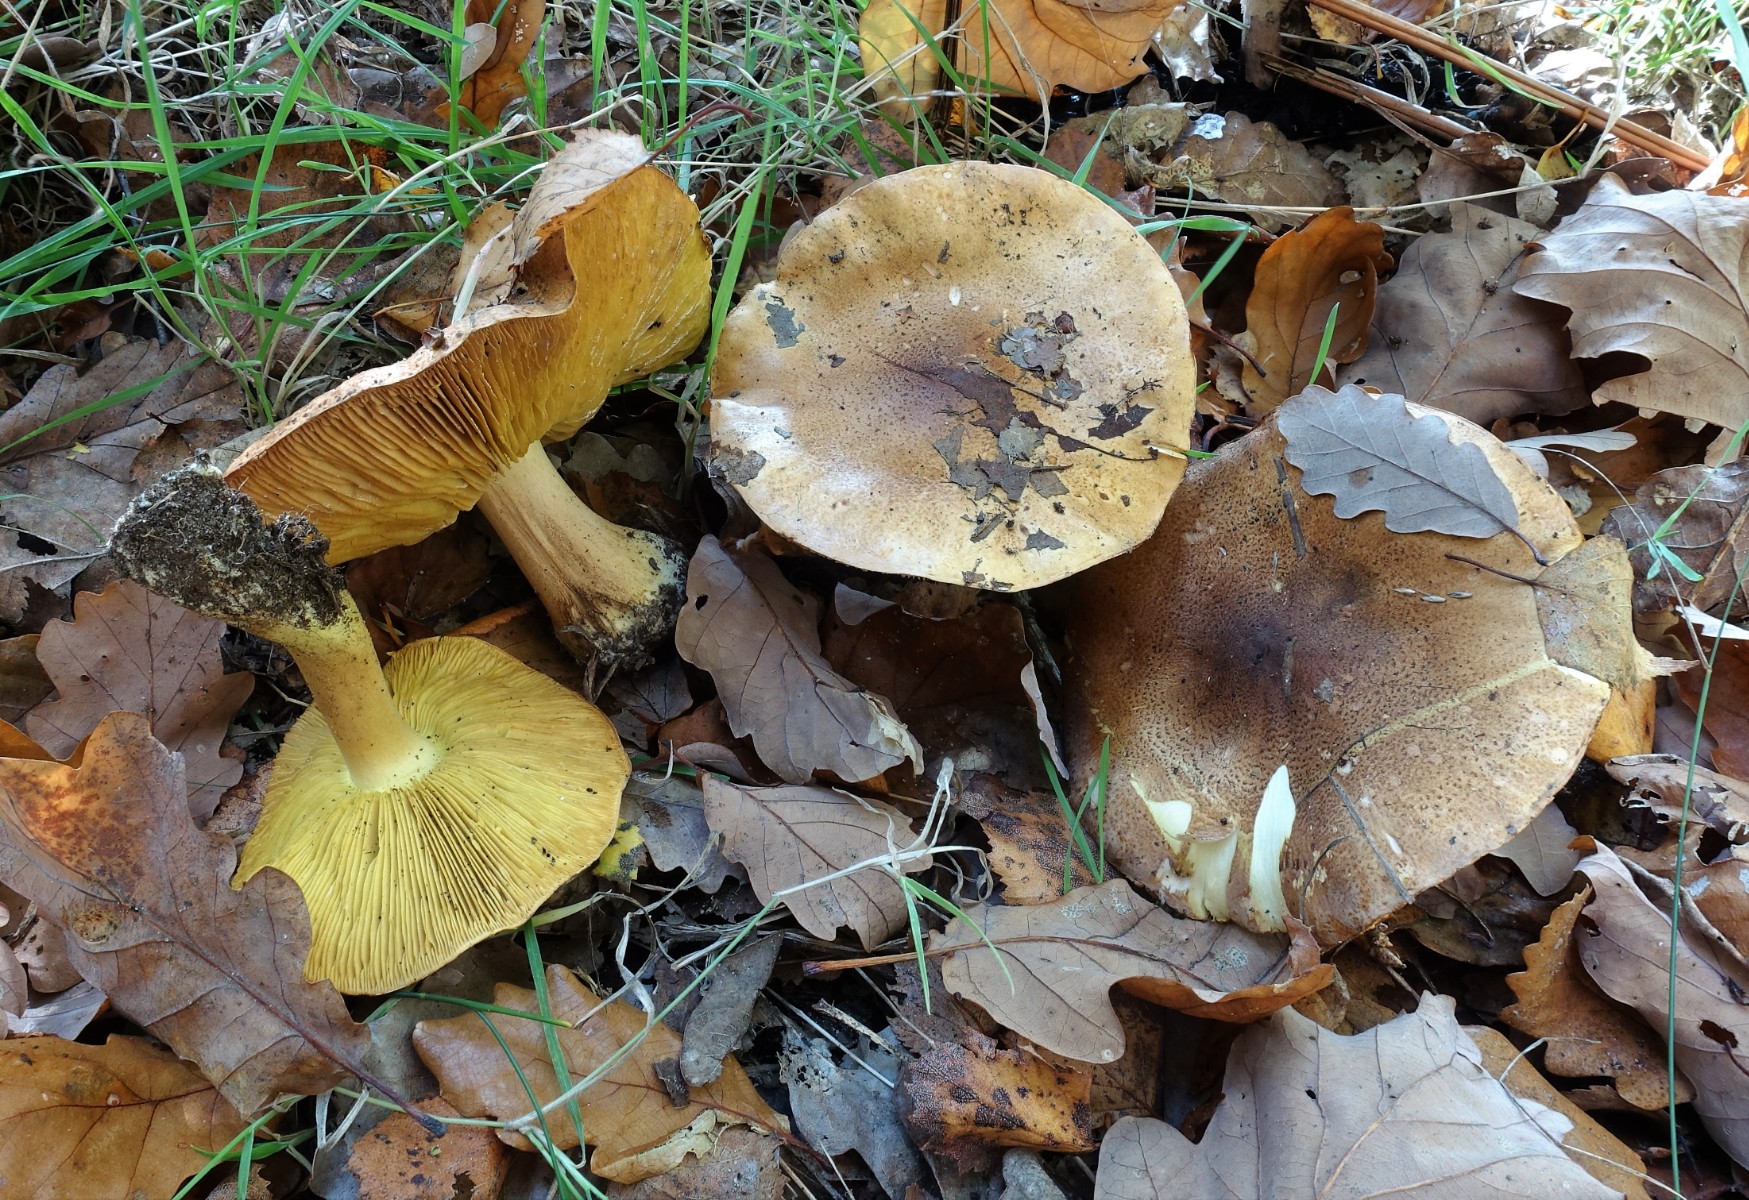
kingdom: Fungi
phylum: Basidiomycota
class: Agaricomycetes
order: Agaricales
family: Tricholomataceae
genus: Tricholoma
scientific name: Tricholoma equestre
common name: ægte ridderhat
